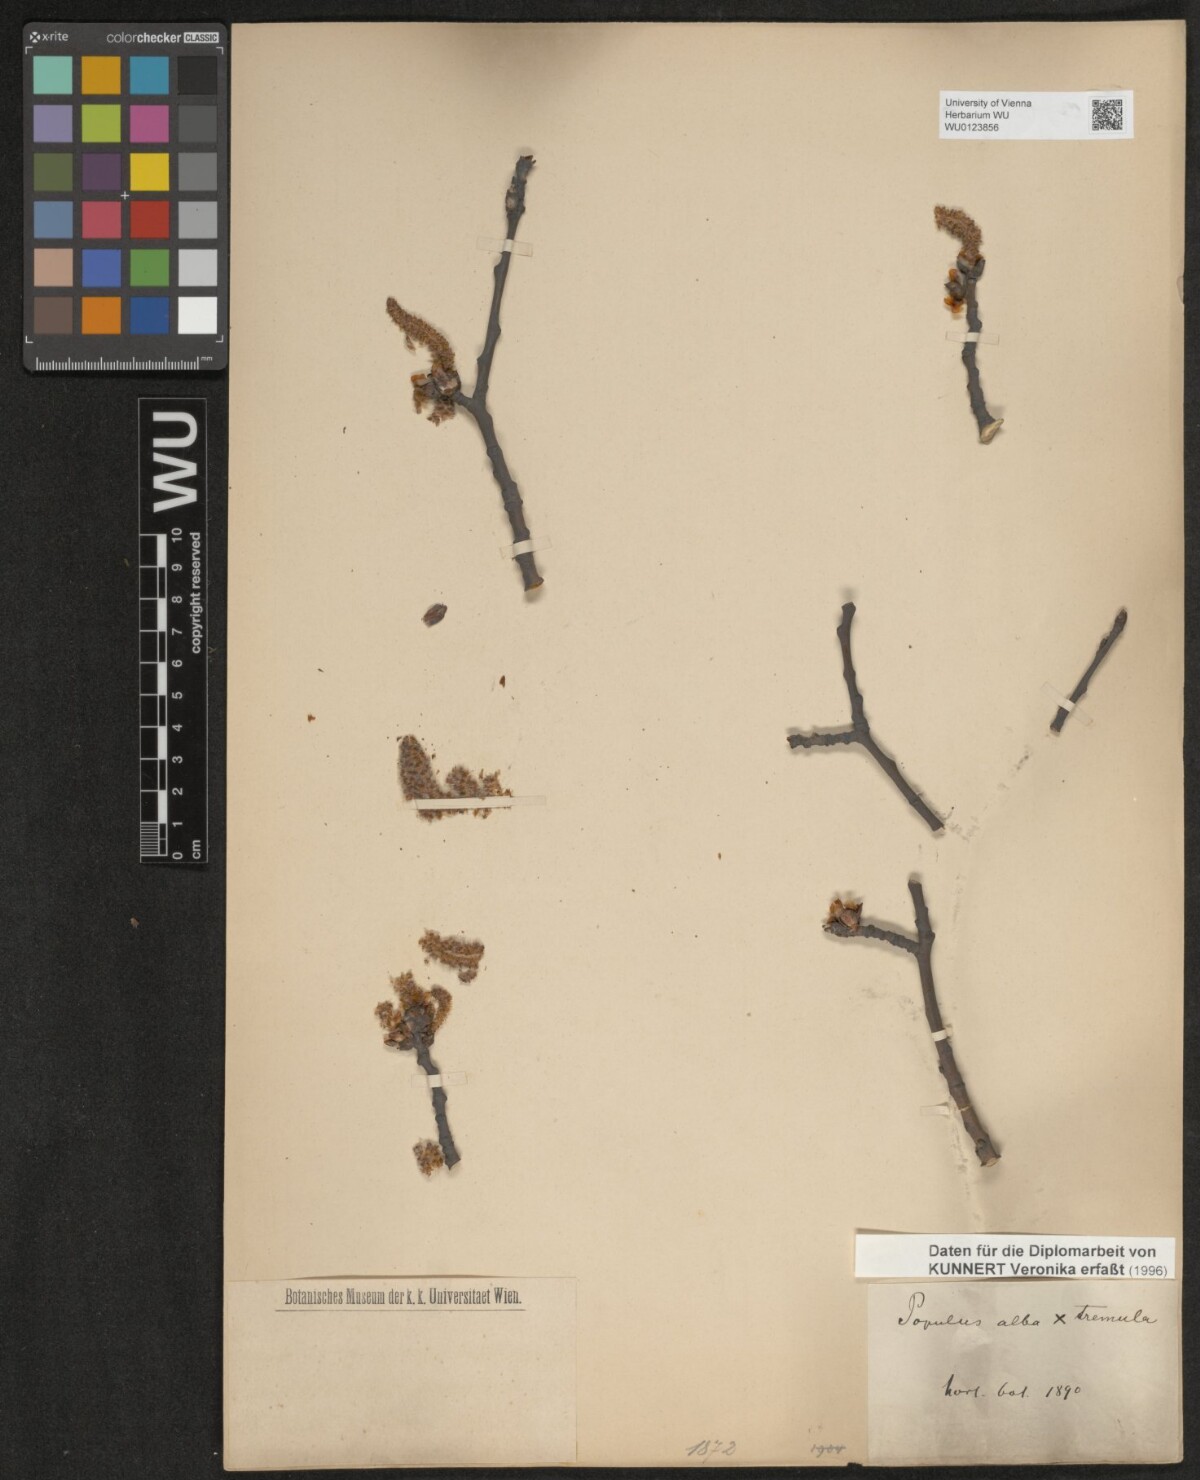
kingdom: Plantae
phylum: Tracheophyta
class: Magnoliopsida
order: Malpighiales
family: Salicaceae
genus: Populus
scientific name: Populus canescens
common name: Gray poplar
